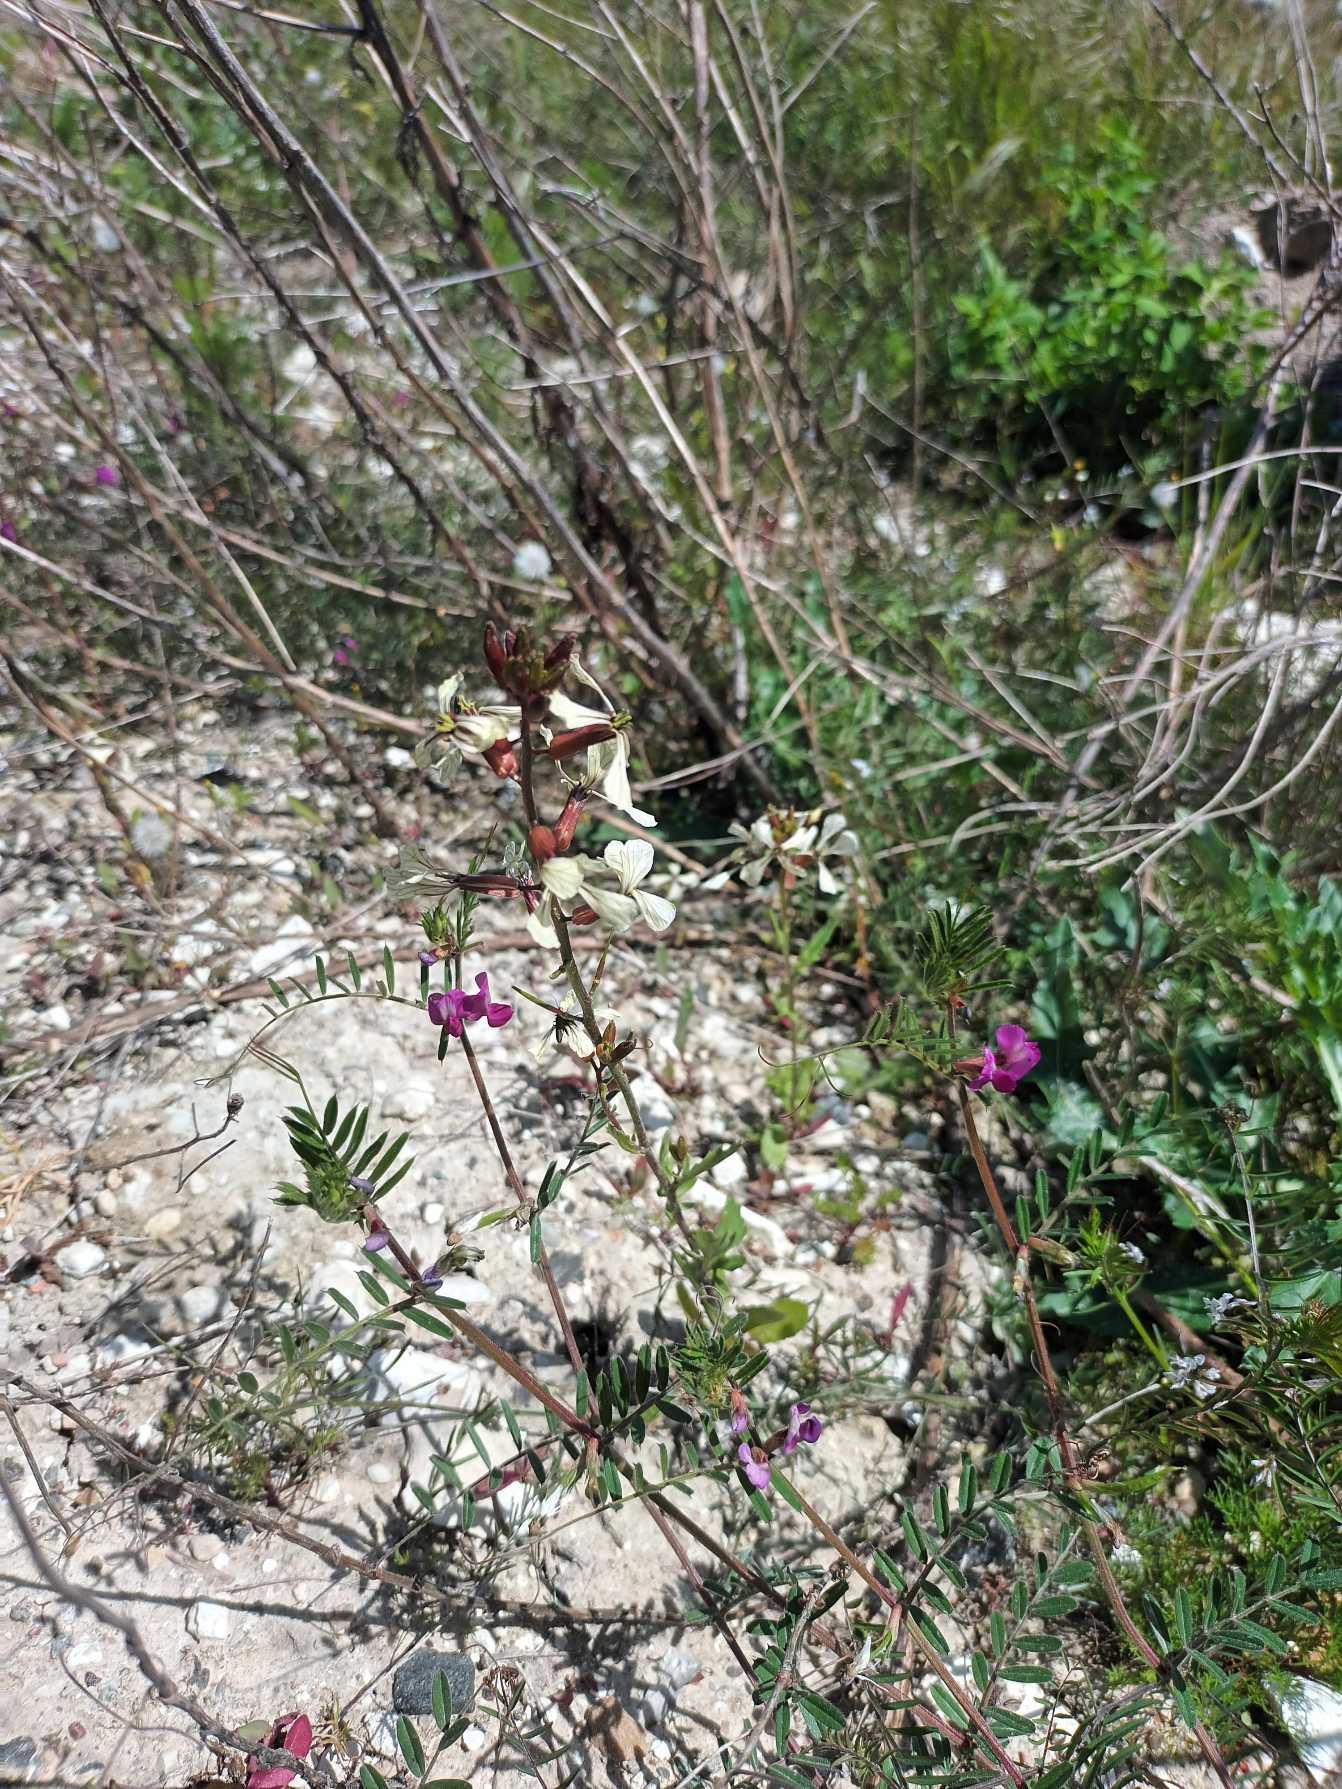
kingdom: Plantae
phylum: Tracheophyta
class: Magnoliopsida
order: Brassicales
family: Brassicaceae
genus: Eruca
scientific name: Eruca vesicaria
